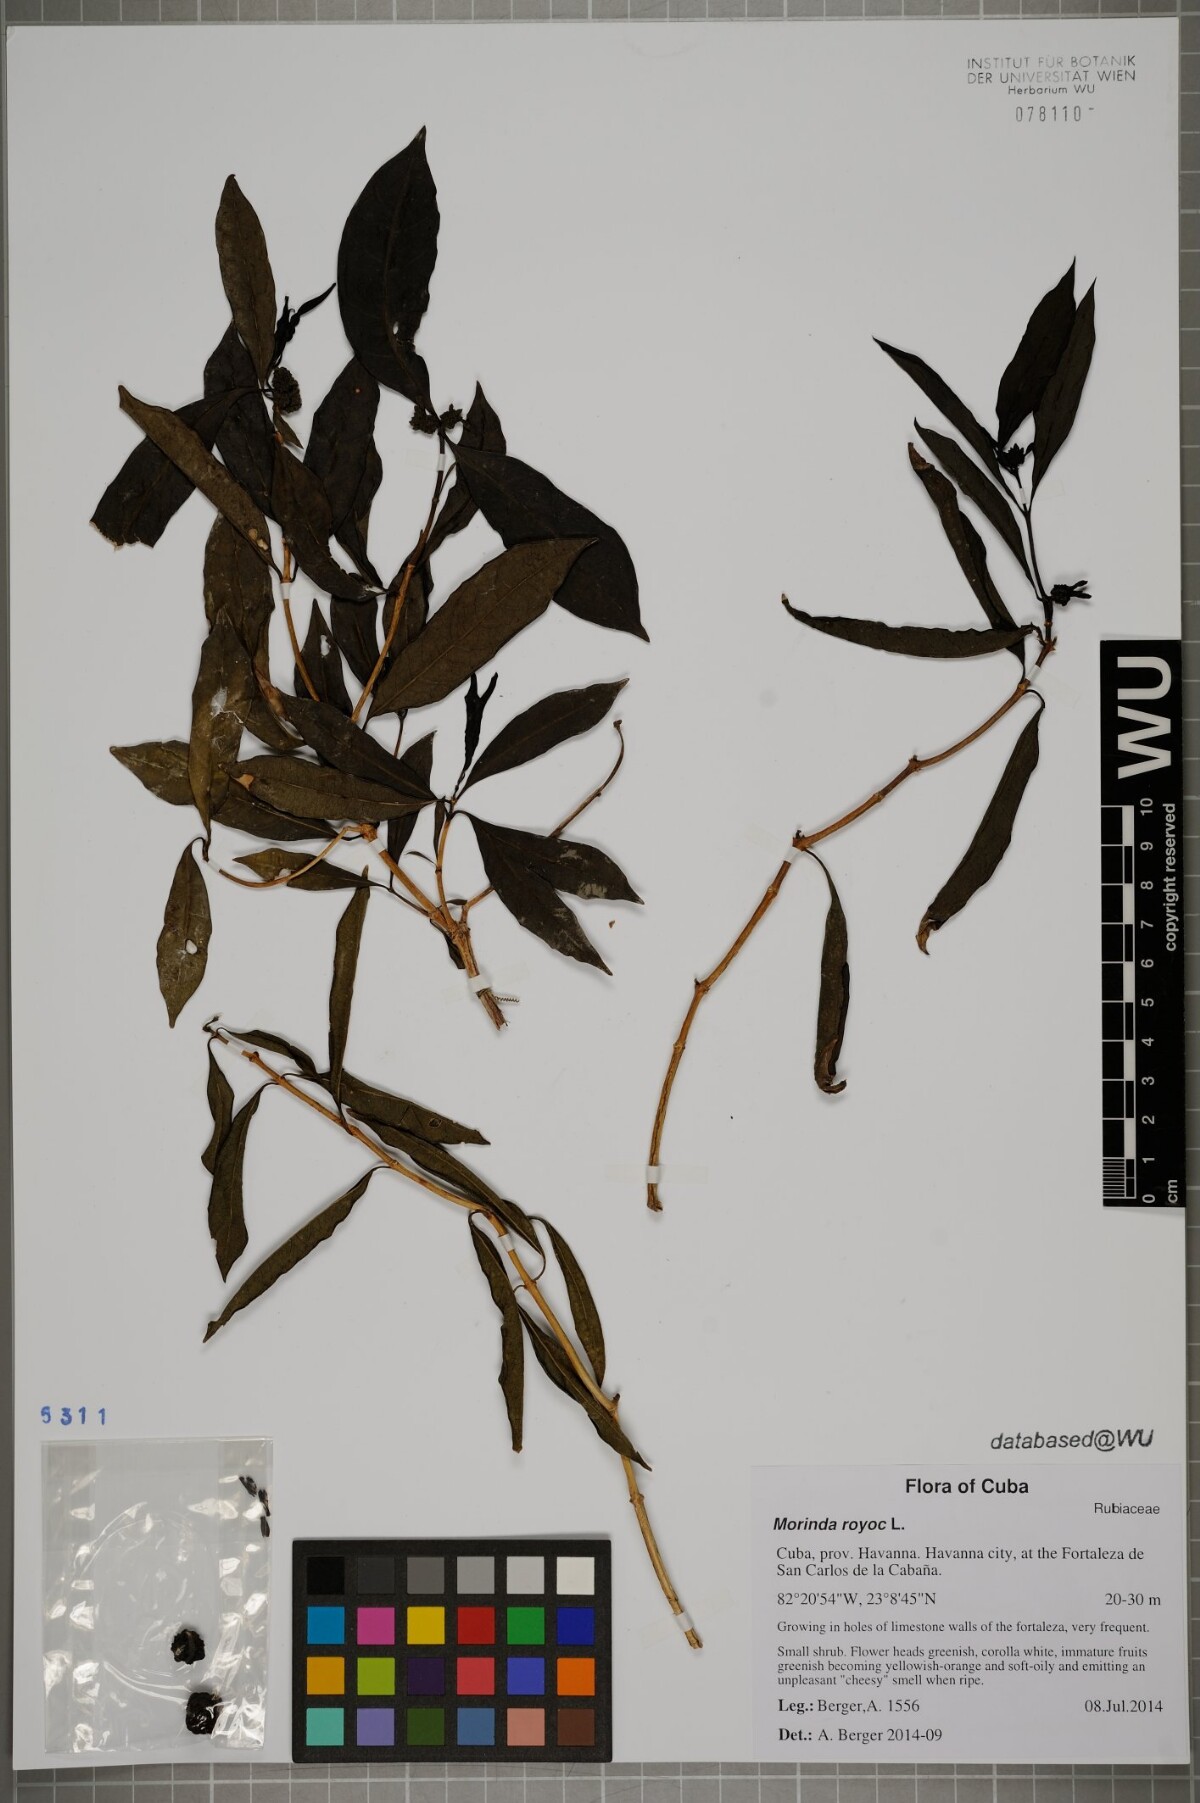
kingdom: Plantae
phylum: Tracheophyta
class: Magnoliopsida
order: Gentianales
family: Rubiaceae
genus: Morinda
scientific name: Morinda royoc
